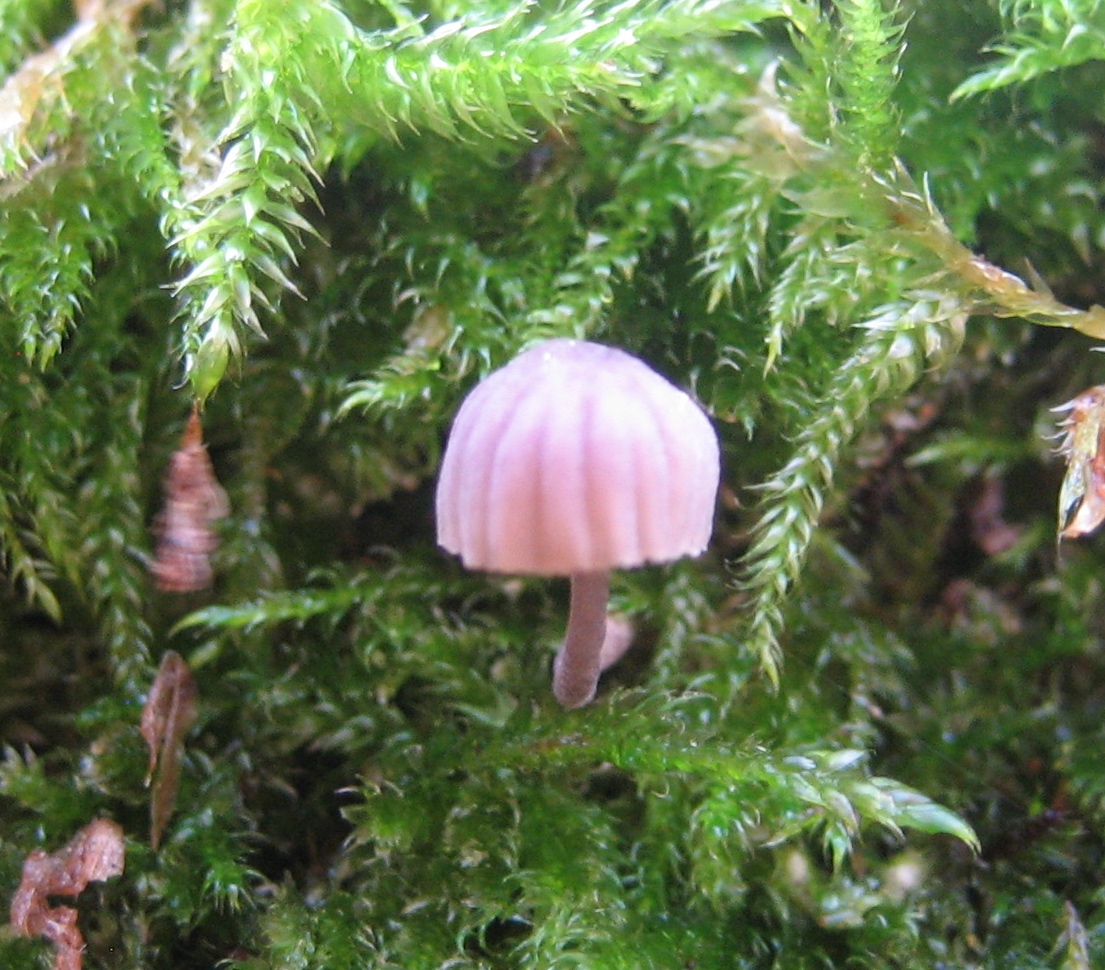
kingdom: Fungi
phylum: Basidiomycota
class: Agaricomycetes
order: Agaricales
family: Mycenaceae
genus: Mycena
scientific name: Mycena meliigena
